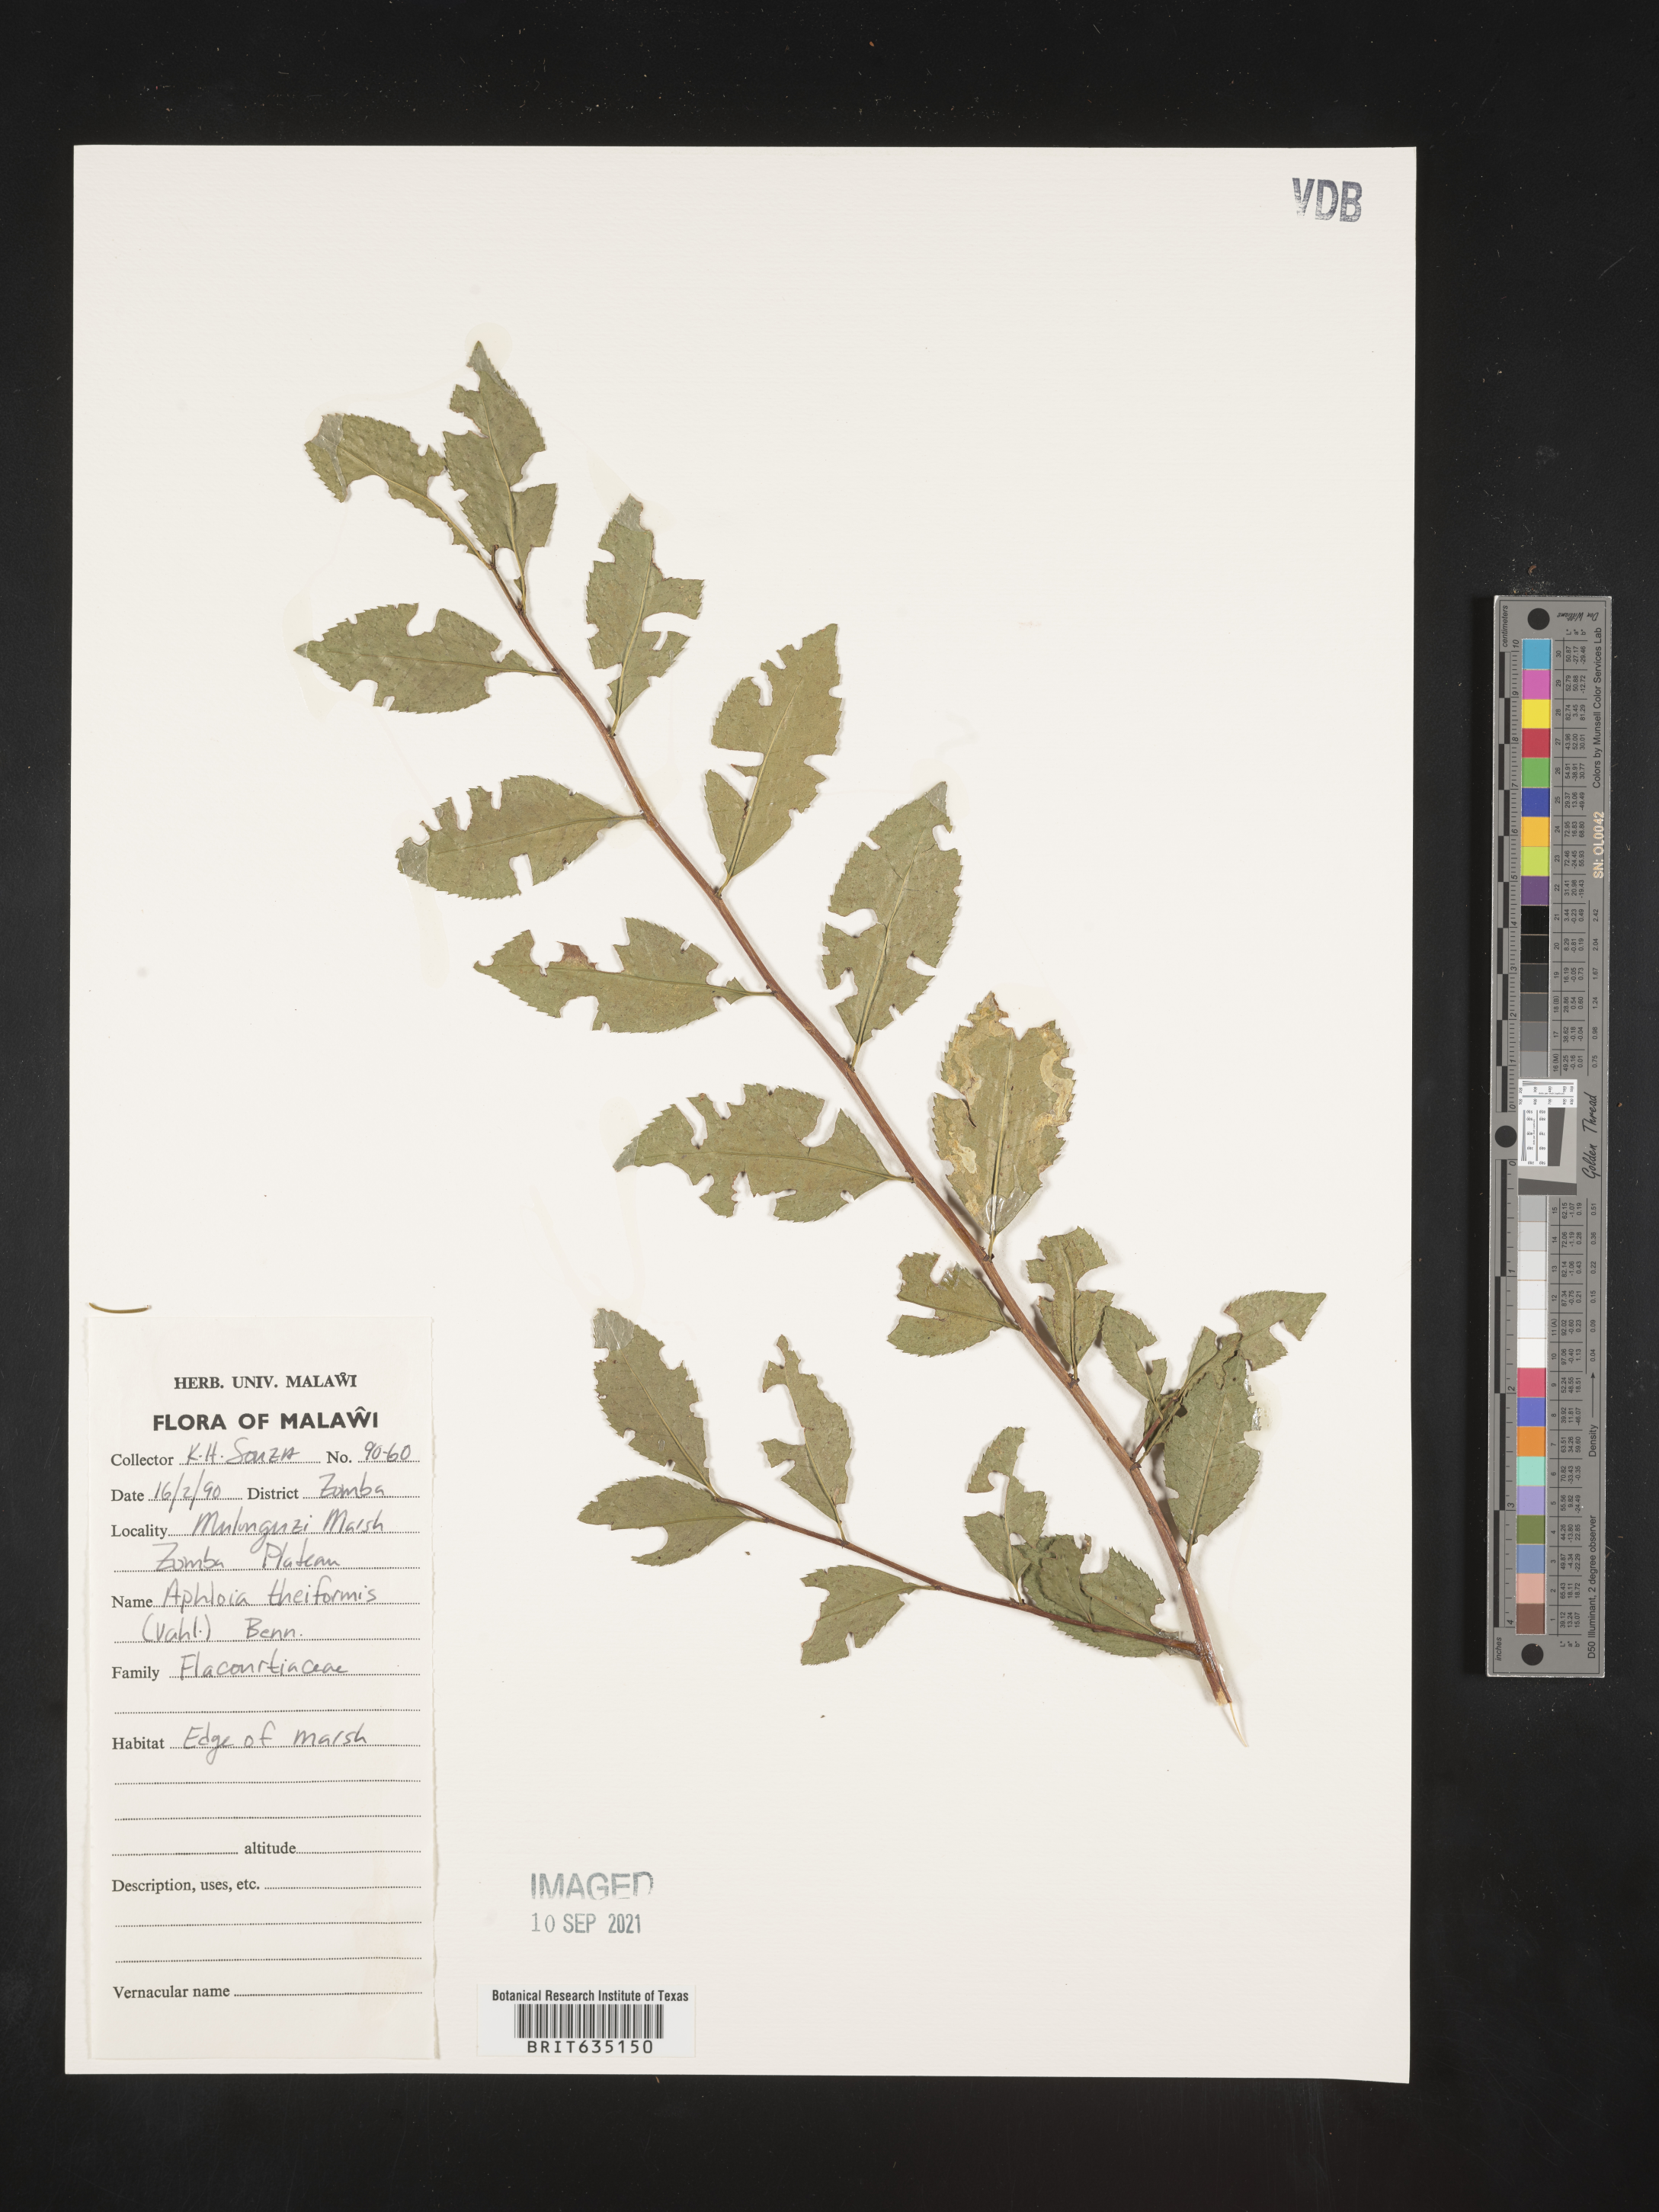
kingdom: Plantae
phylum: Tracheophyta
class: Magnoliopsida
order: Crossosomatales
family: Aphloiaceae
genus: Aphloia
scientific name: Aphloia theiformis
